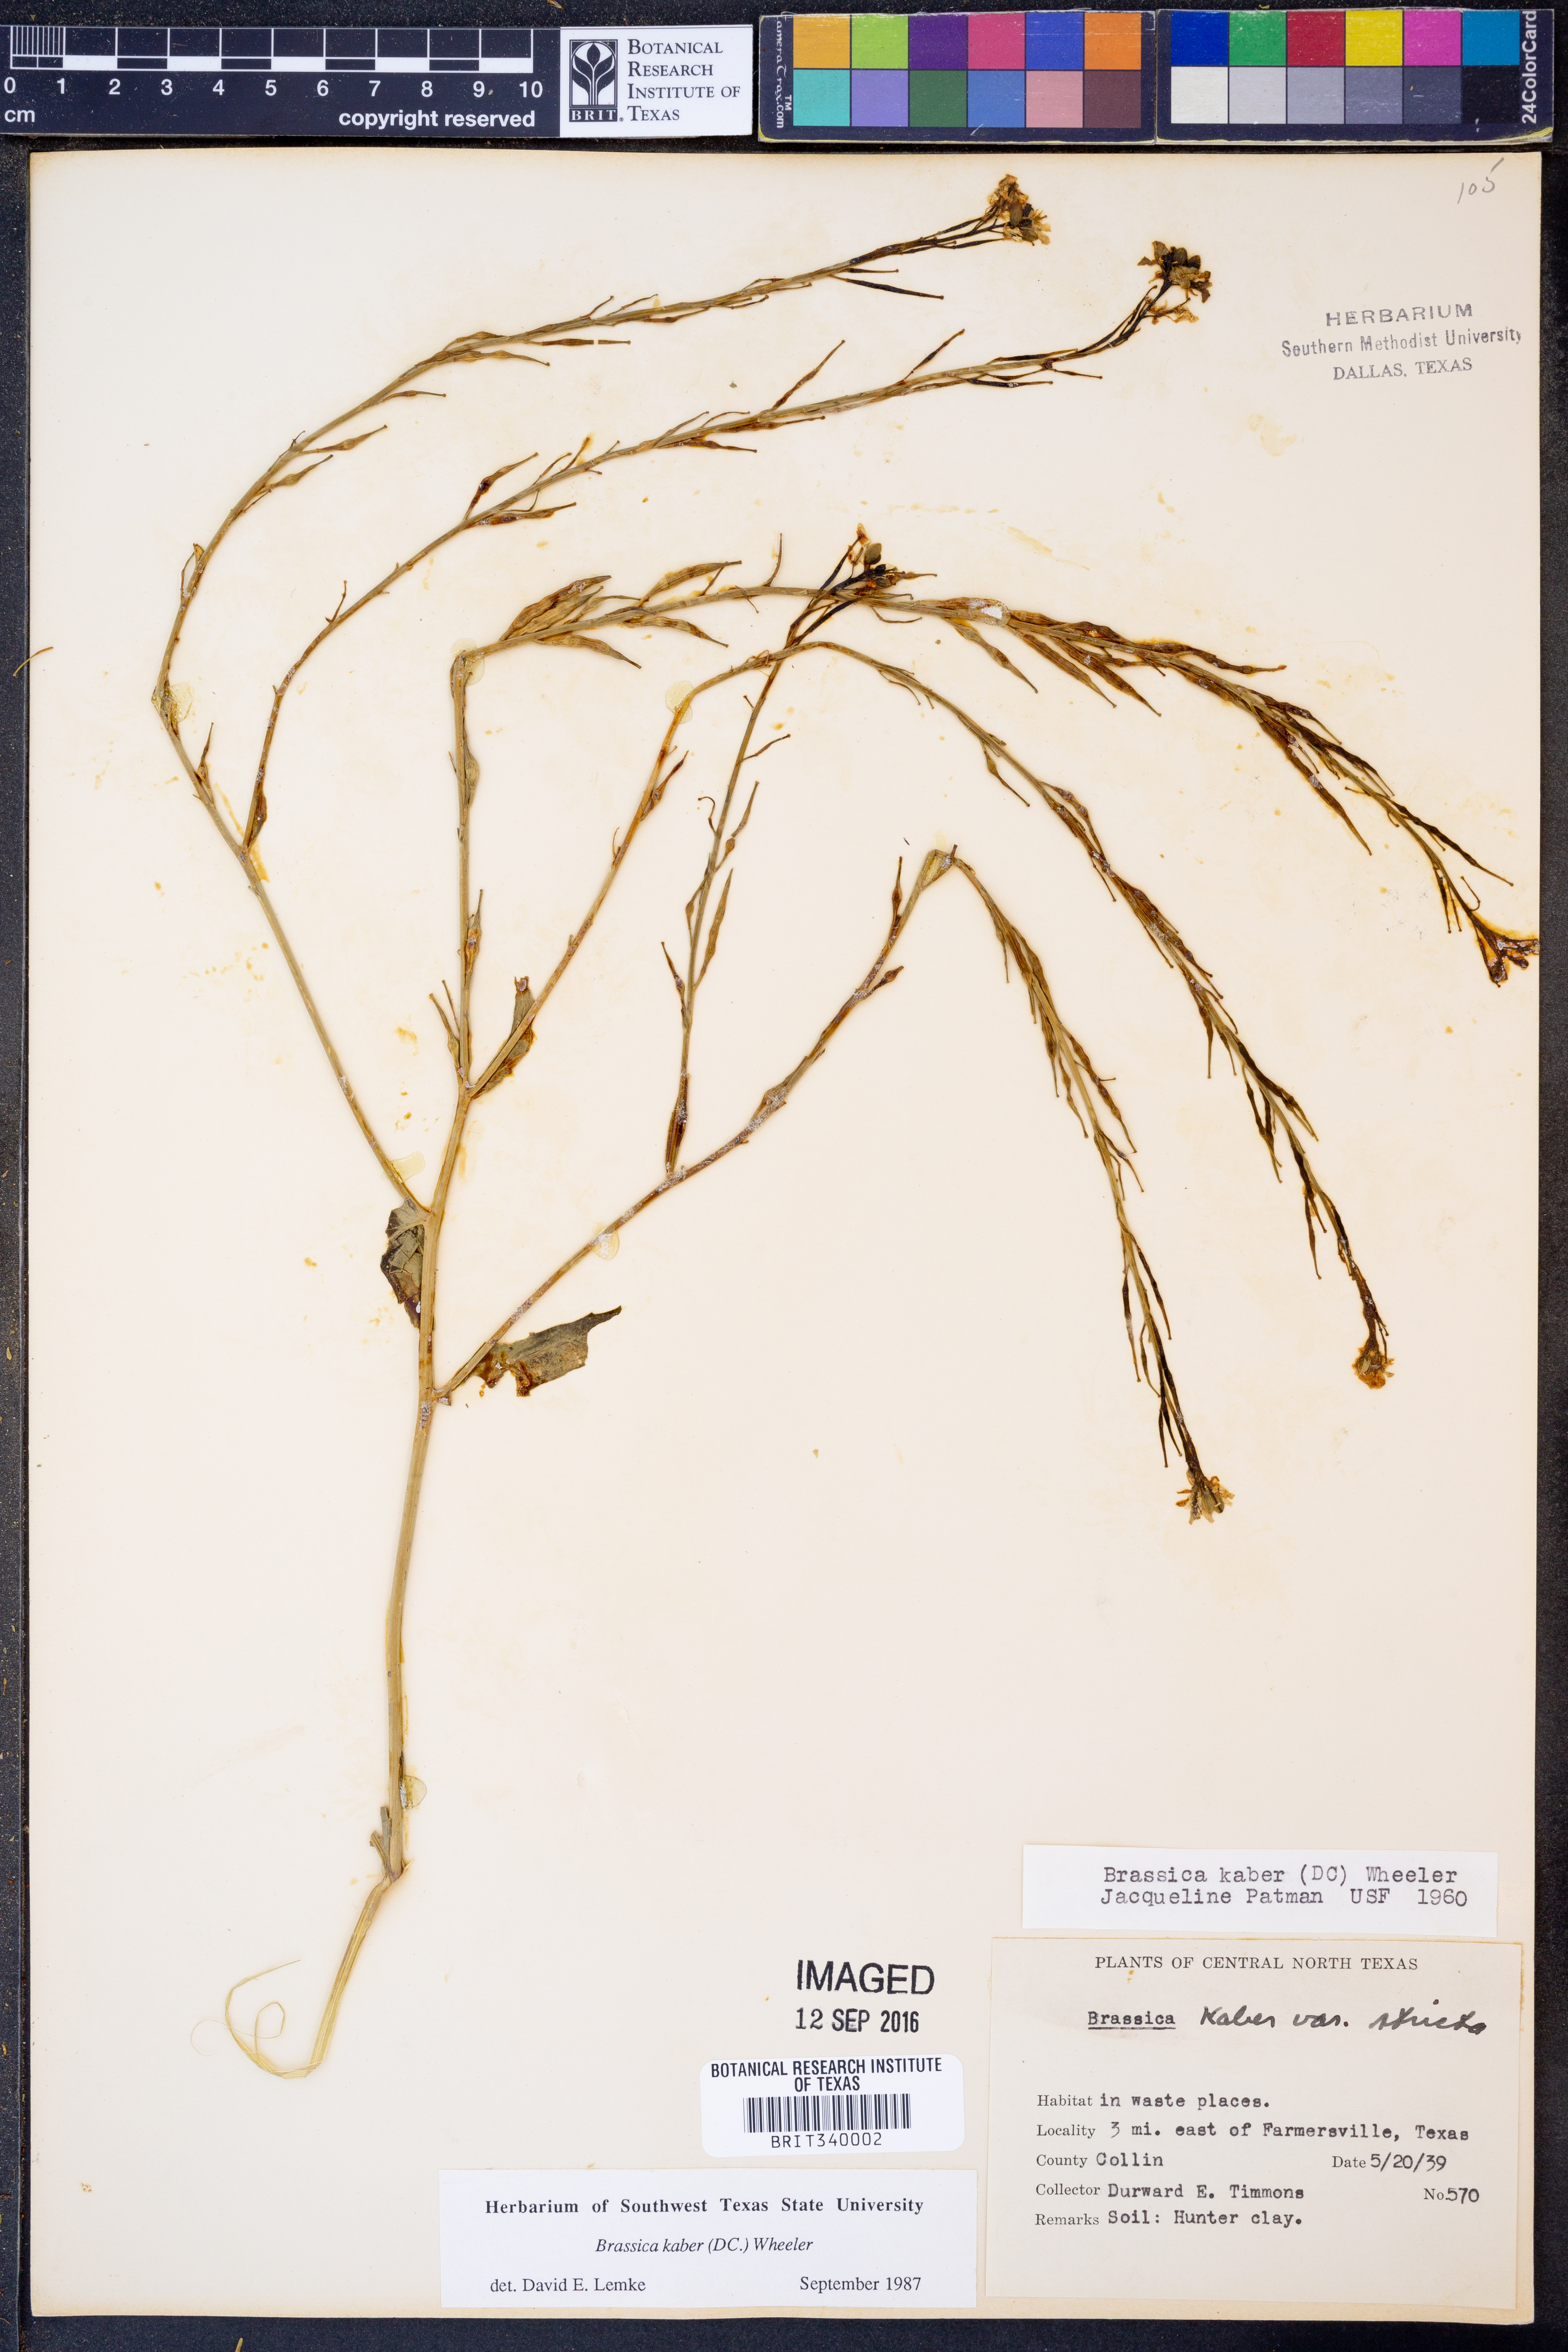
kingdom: Plantae
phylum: Tracheophyta
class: Magnoliopsida
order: Brassicales
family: Brassicaceae
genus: Sinapis
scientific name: Sinapis arvensis
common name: Charlock
